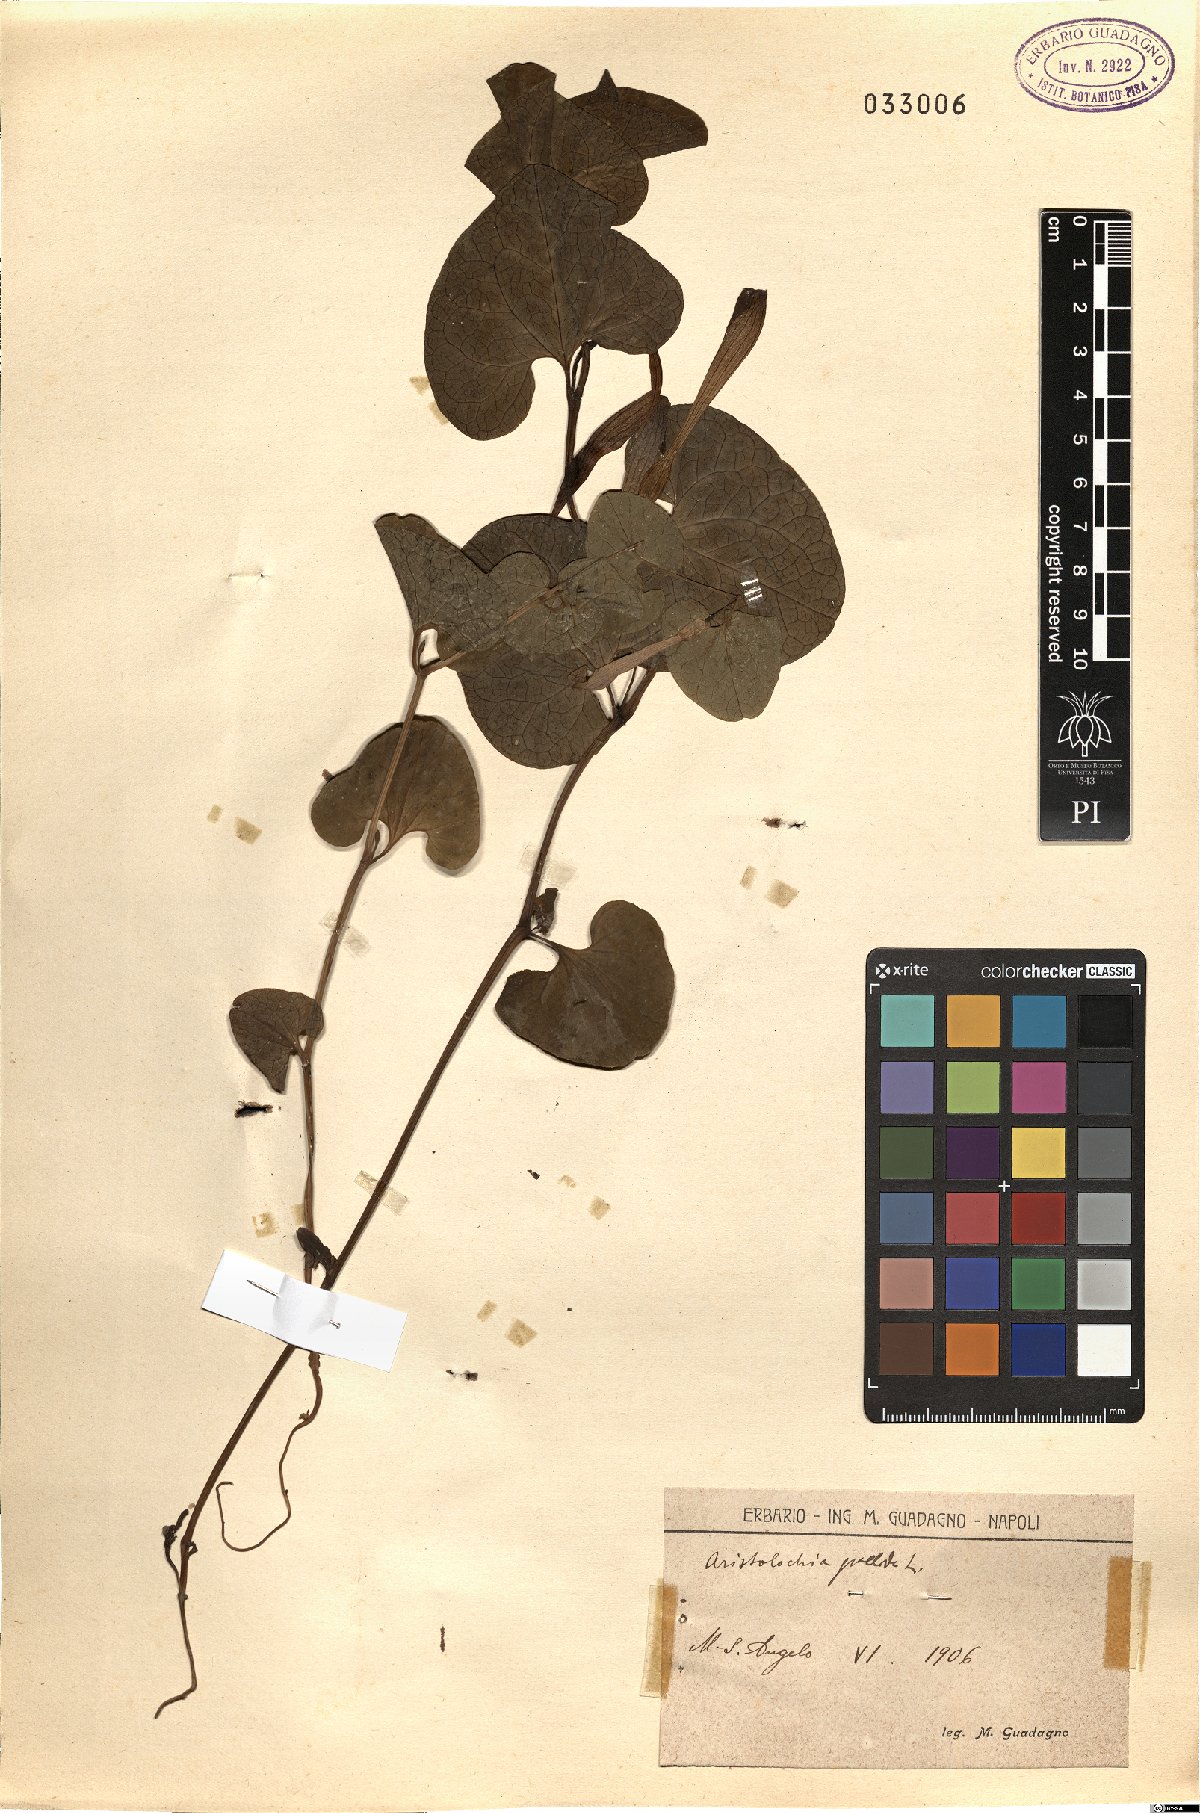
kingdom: Plantae
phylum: Tracheophyta
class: Magnoliopsida
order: Piperales
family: Aristolochiaceae
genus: Aristolochia
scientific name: Aristolochia pallida
